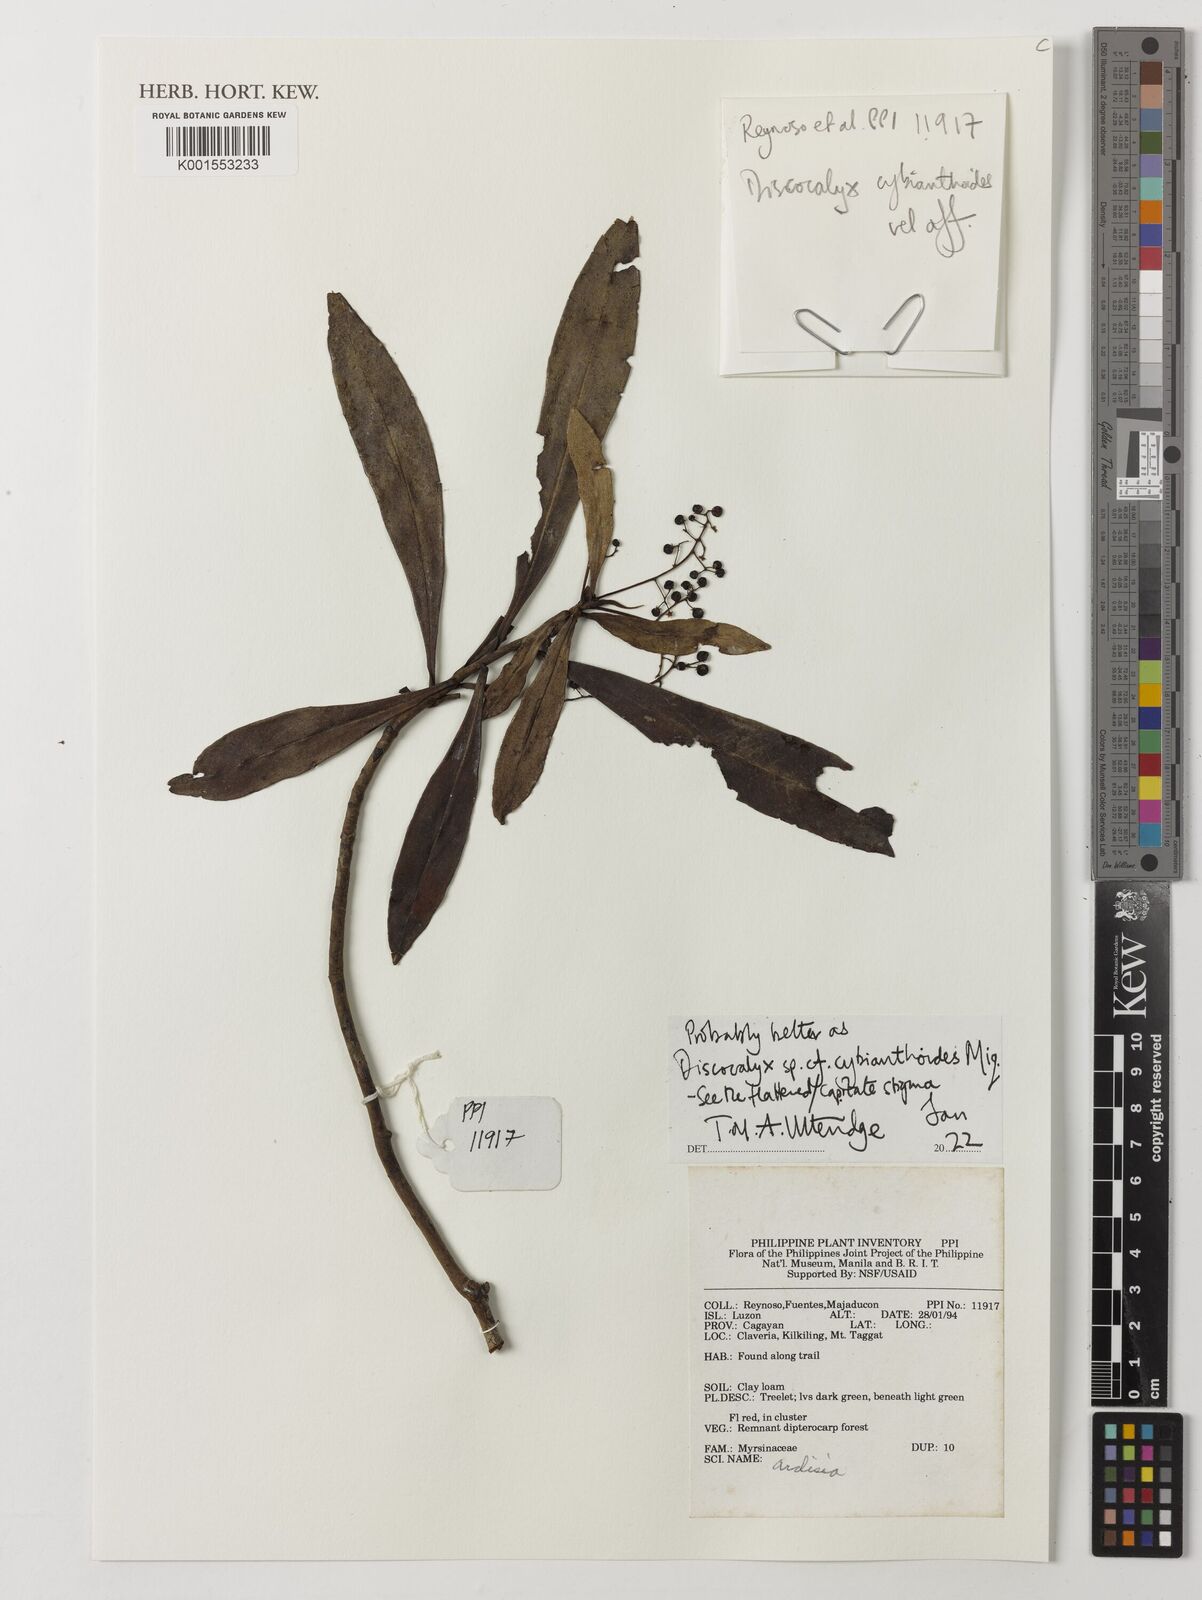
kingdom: Plantae
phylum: Tracheophyta
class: Magnoliopsida
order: Ericales
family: Primulaceae
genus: Discocalyx
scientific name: Discocalyx cybianthoides
